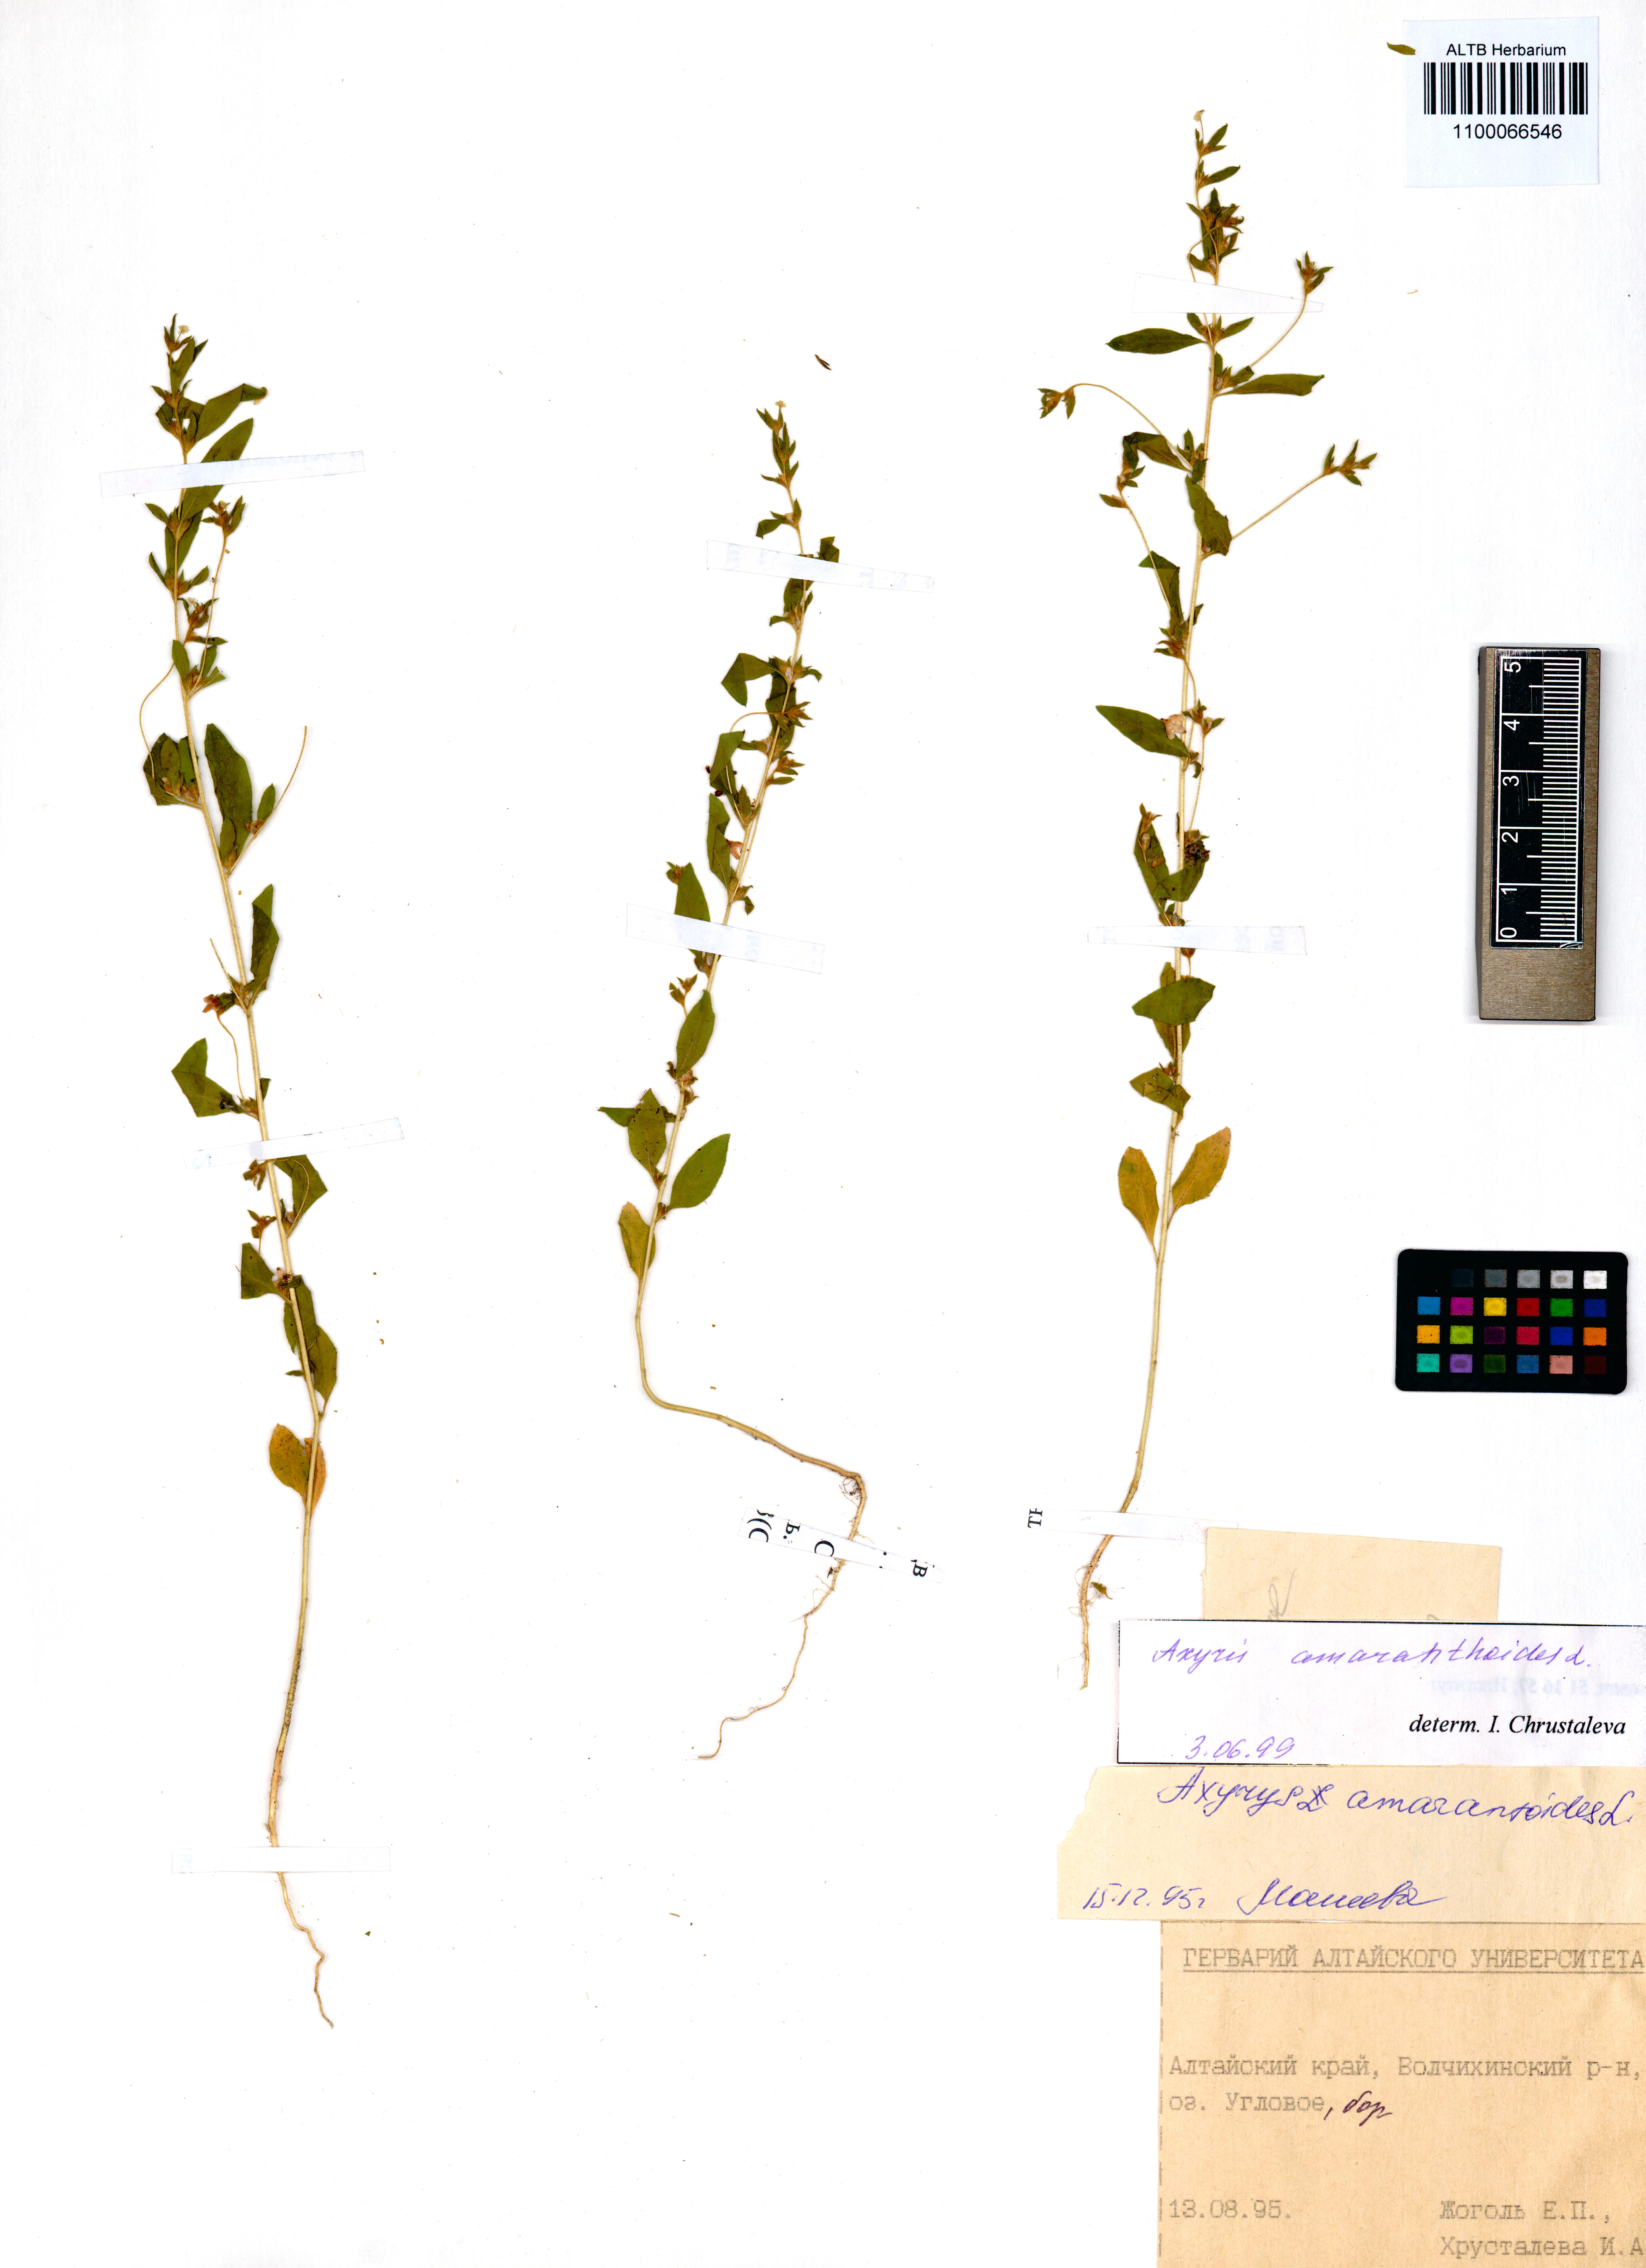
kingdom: Plantae
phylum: Tracheophyta
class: Magnoliopsida
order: Caryophyllales
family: Amaranthaceae
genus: Axyris
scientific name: Axyris amaranthoides
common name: Russian pigweed
